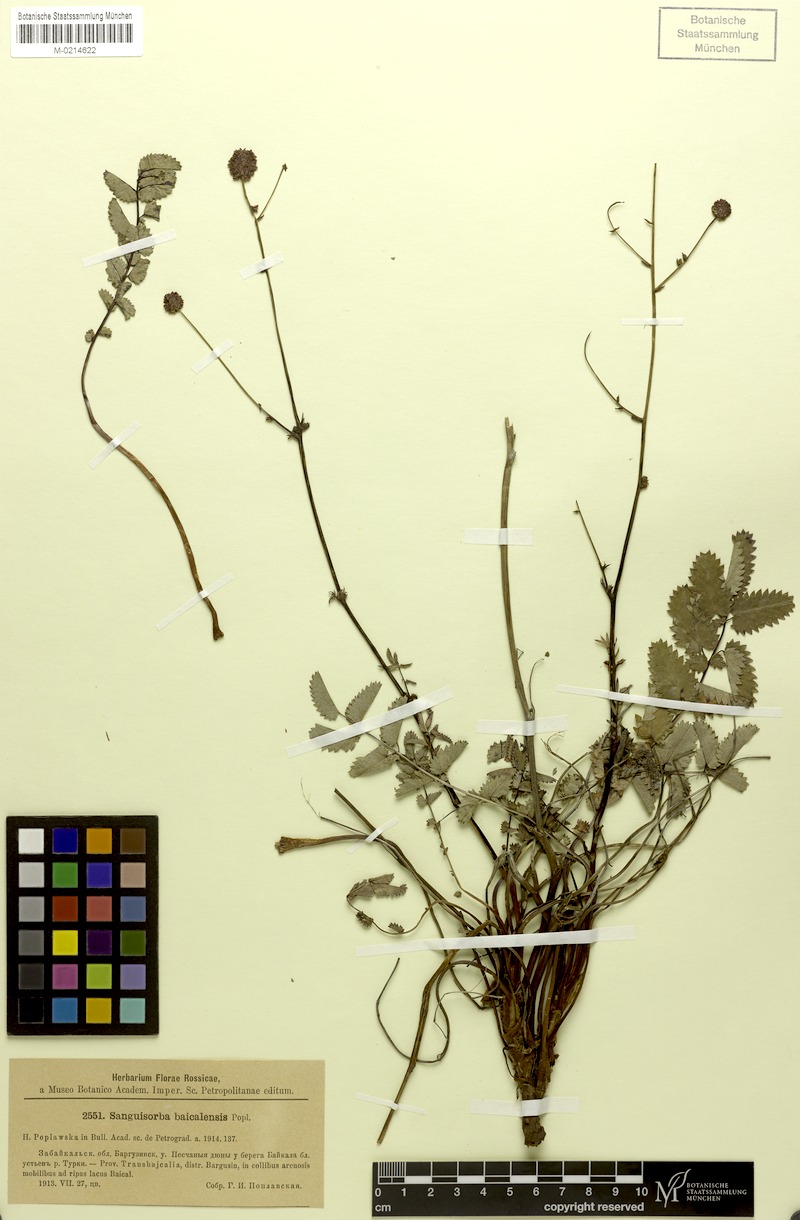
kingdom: Plantae
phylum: Tracheophyta
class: Magnoliopsida
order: Rosales
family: Rosaceae
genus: Sanguisorba
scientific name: Sanguisorba officinalis
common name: Great burnet
